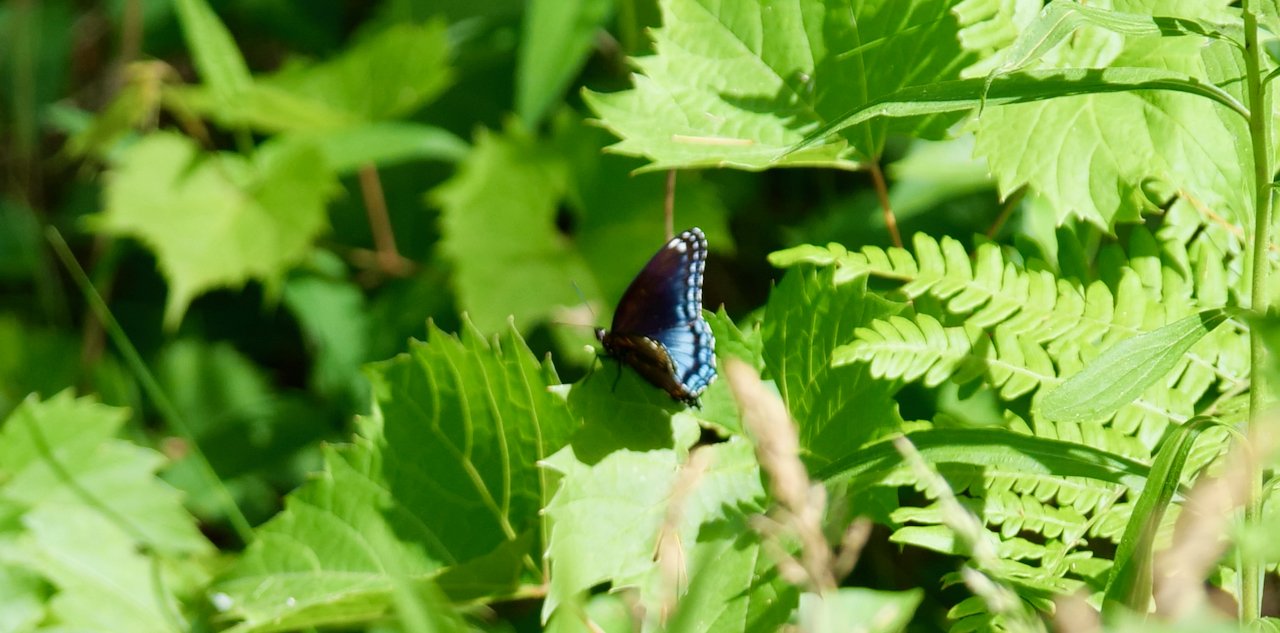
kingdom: Animalia
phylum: Arthropoda
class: Insecta
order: Lepidoptera
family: Nymphalidae
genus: Limenitis
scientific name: Limenitis astyanax
